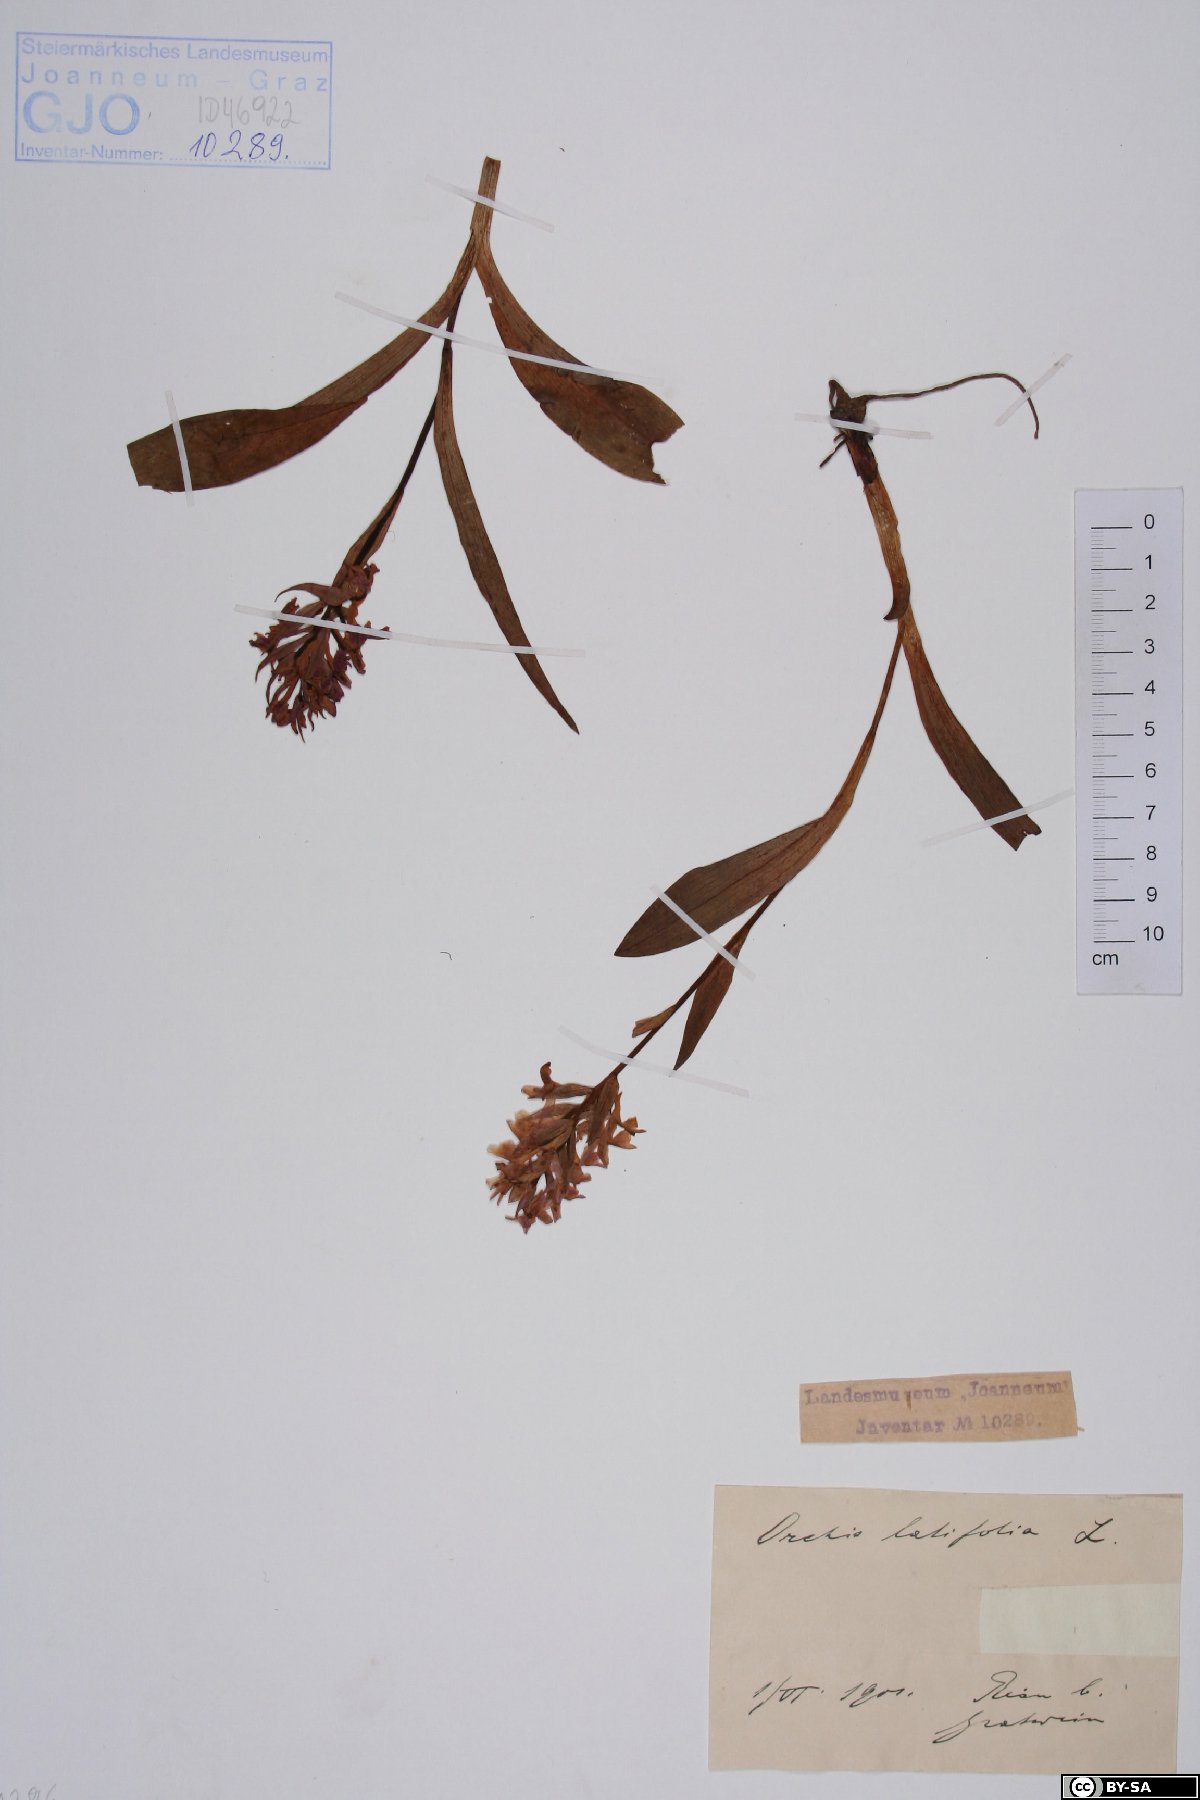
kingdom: Plantae
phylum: Tracheophyta
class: Liliopsida
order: Asparagales
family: Orchidaceae
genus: Dactylorhiza
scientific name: Dactylorhiza incarnata
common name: Early marsh-orchid
